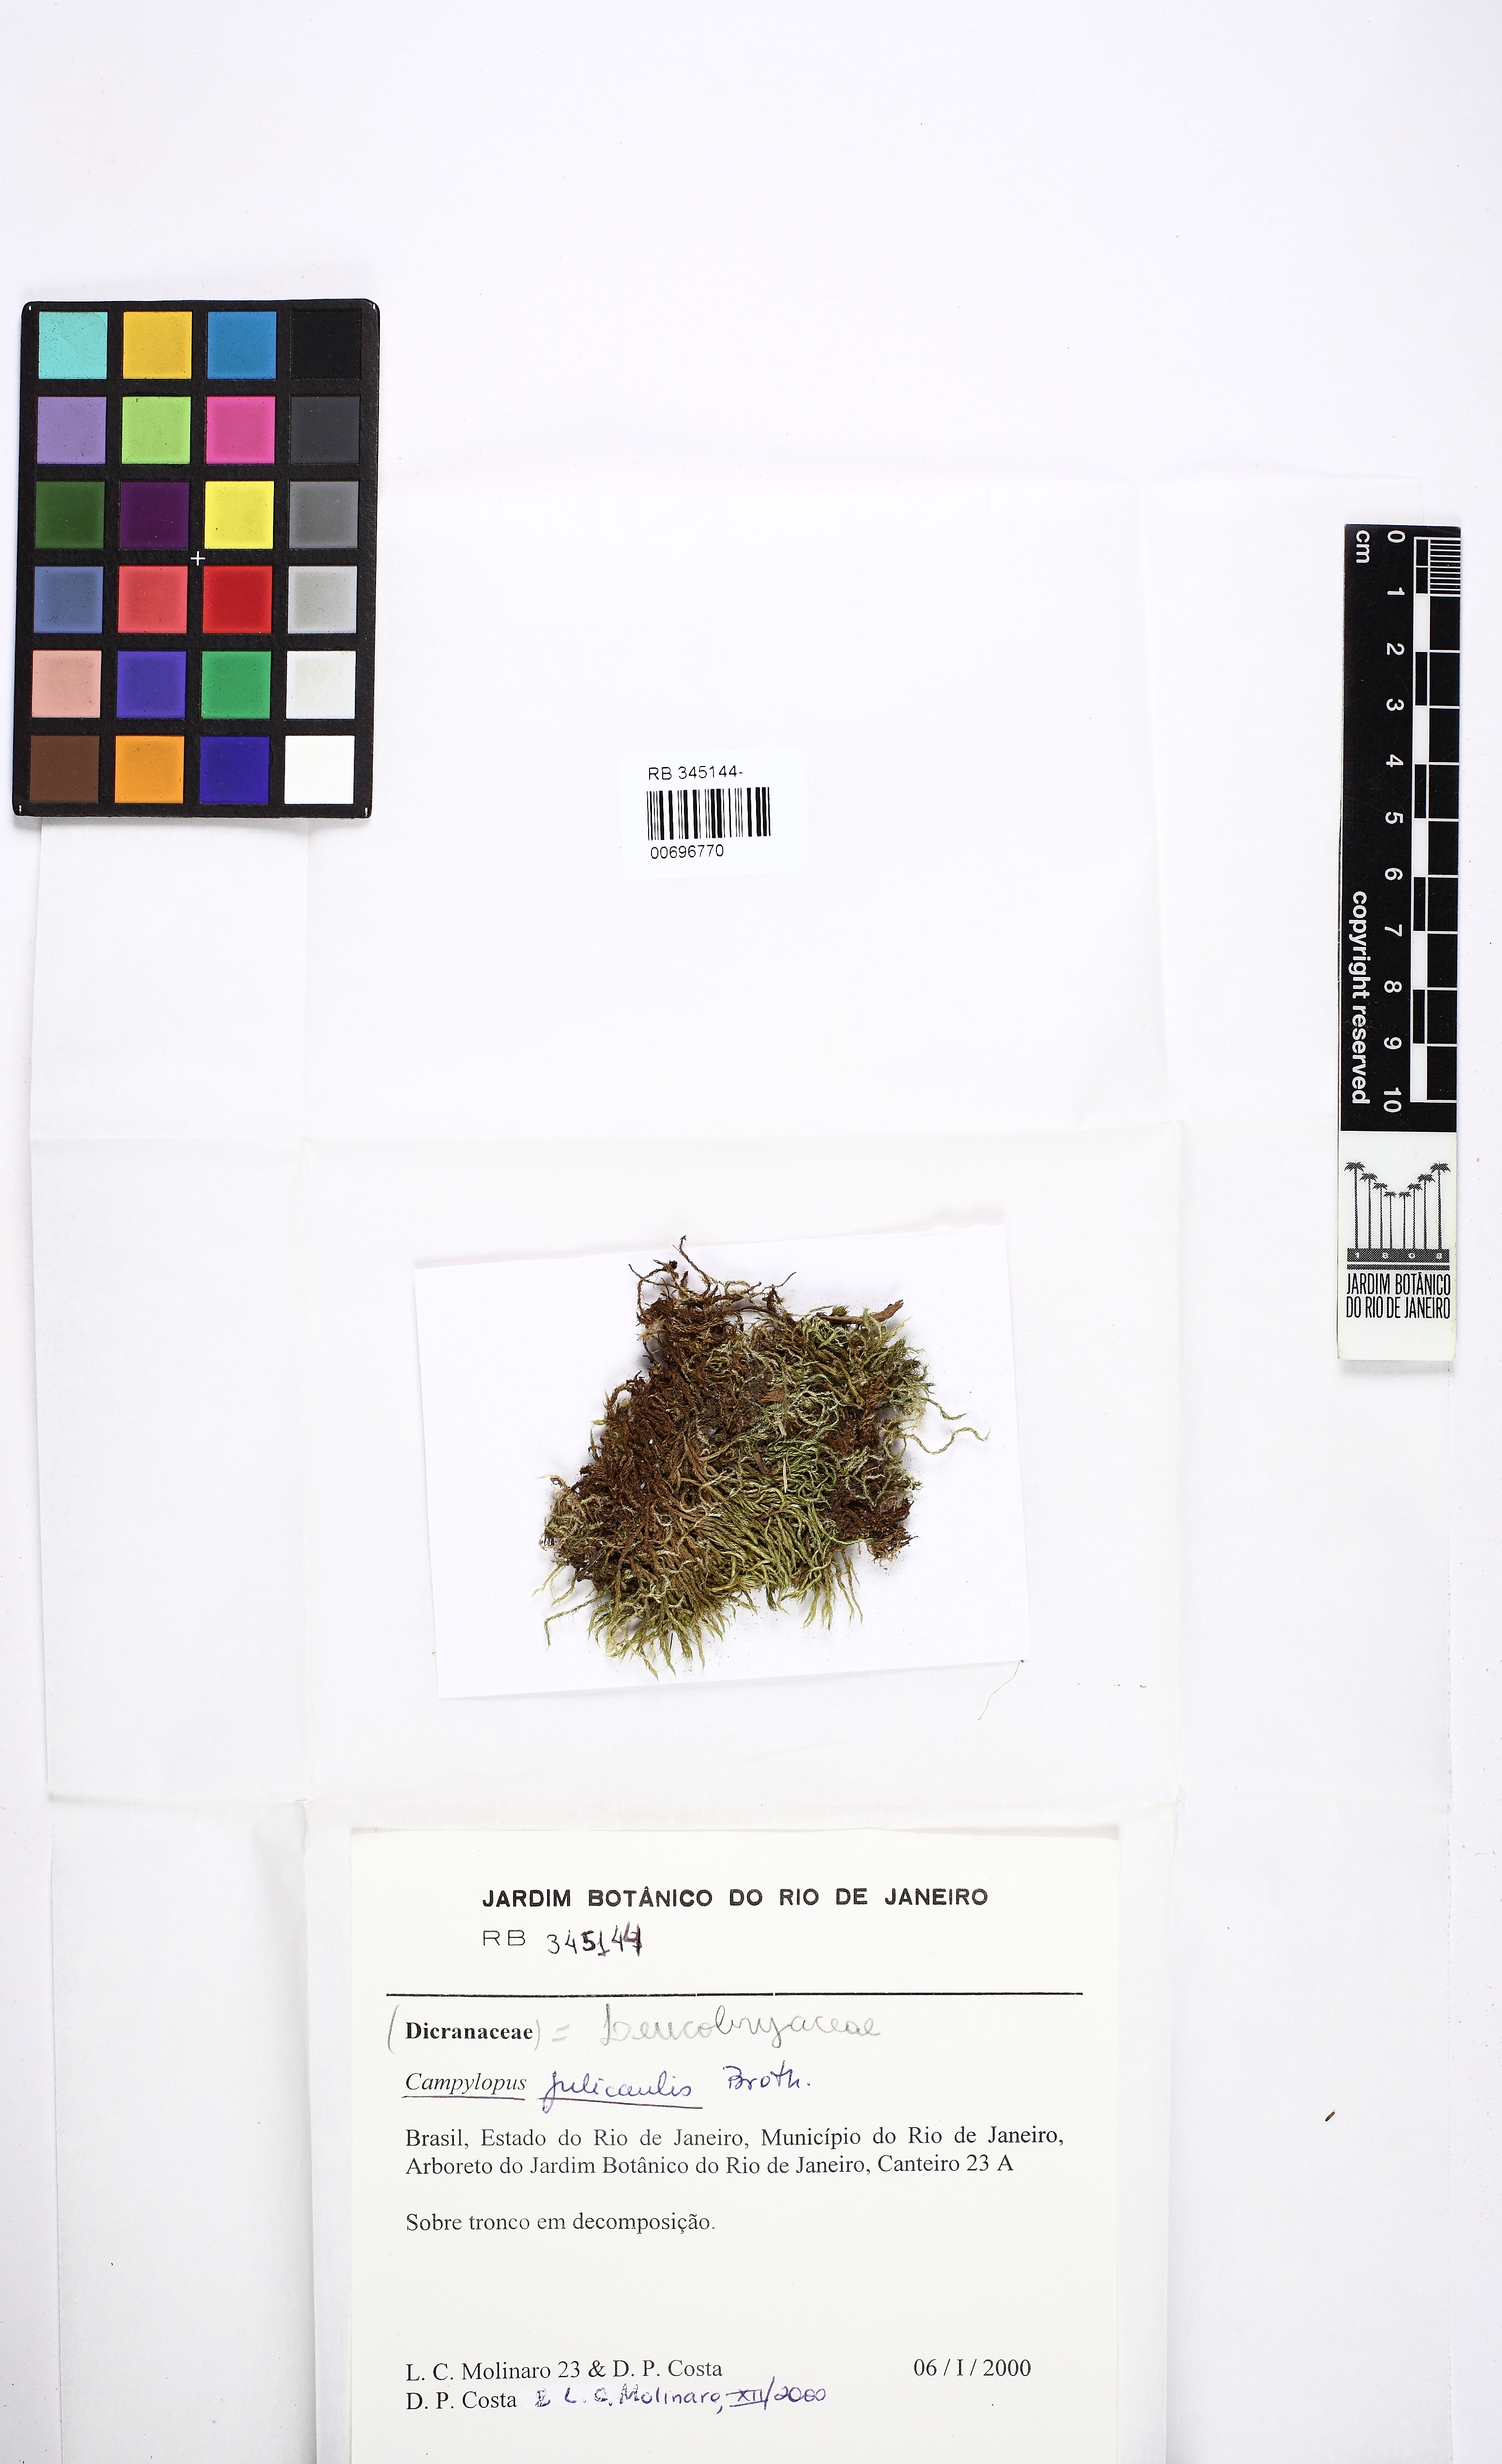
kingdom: Plantae
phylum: Bryophyta
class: Bryopsida
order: Dicranales
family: Leucobryaceae
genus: Campylopus
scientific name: Campylopus julicaulis
